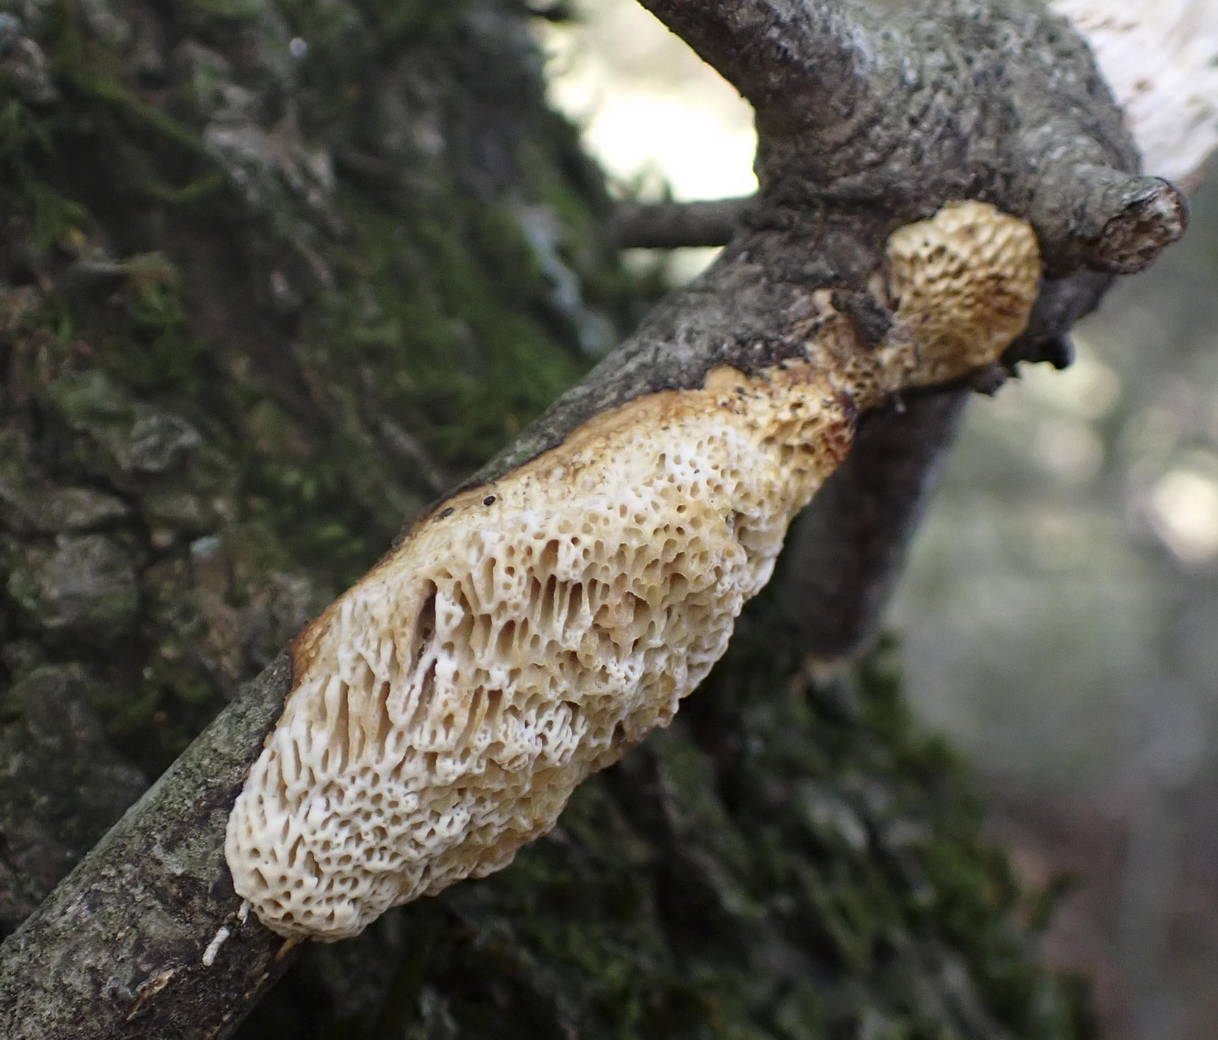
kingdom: Fungi
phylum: Basidiomycota
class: Agaricomycetes
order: Polyporales
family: Polyporaceae
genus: Szczepkamyces
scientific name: Szczepkamyces campestris
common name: hasselporesvamp
